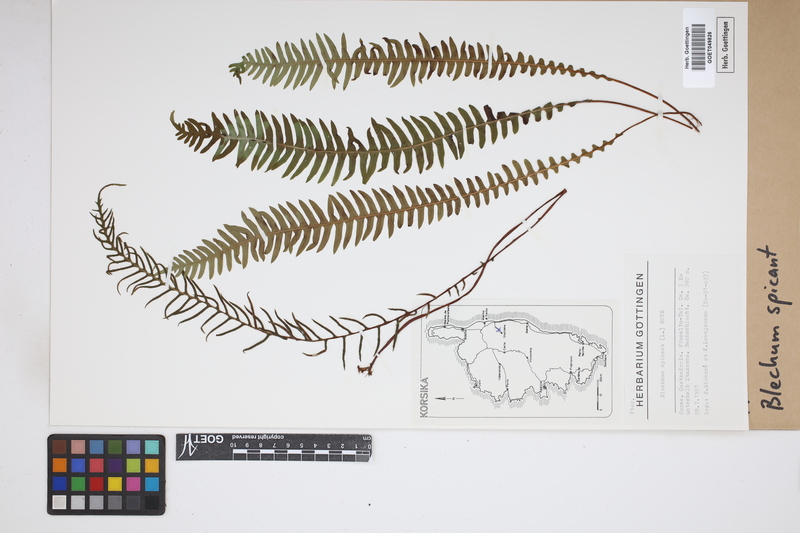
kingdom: Plantae
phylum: Tracheophyta
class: Polypodiopsida
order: Polypodiales
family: Blechnaceae
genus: Struthiopteris
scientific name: Struthiopteris spicant
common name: Deer fern
